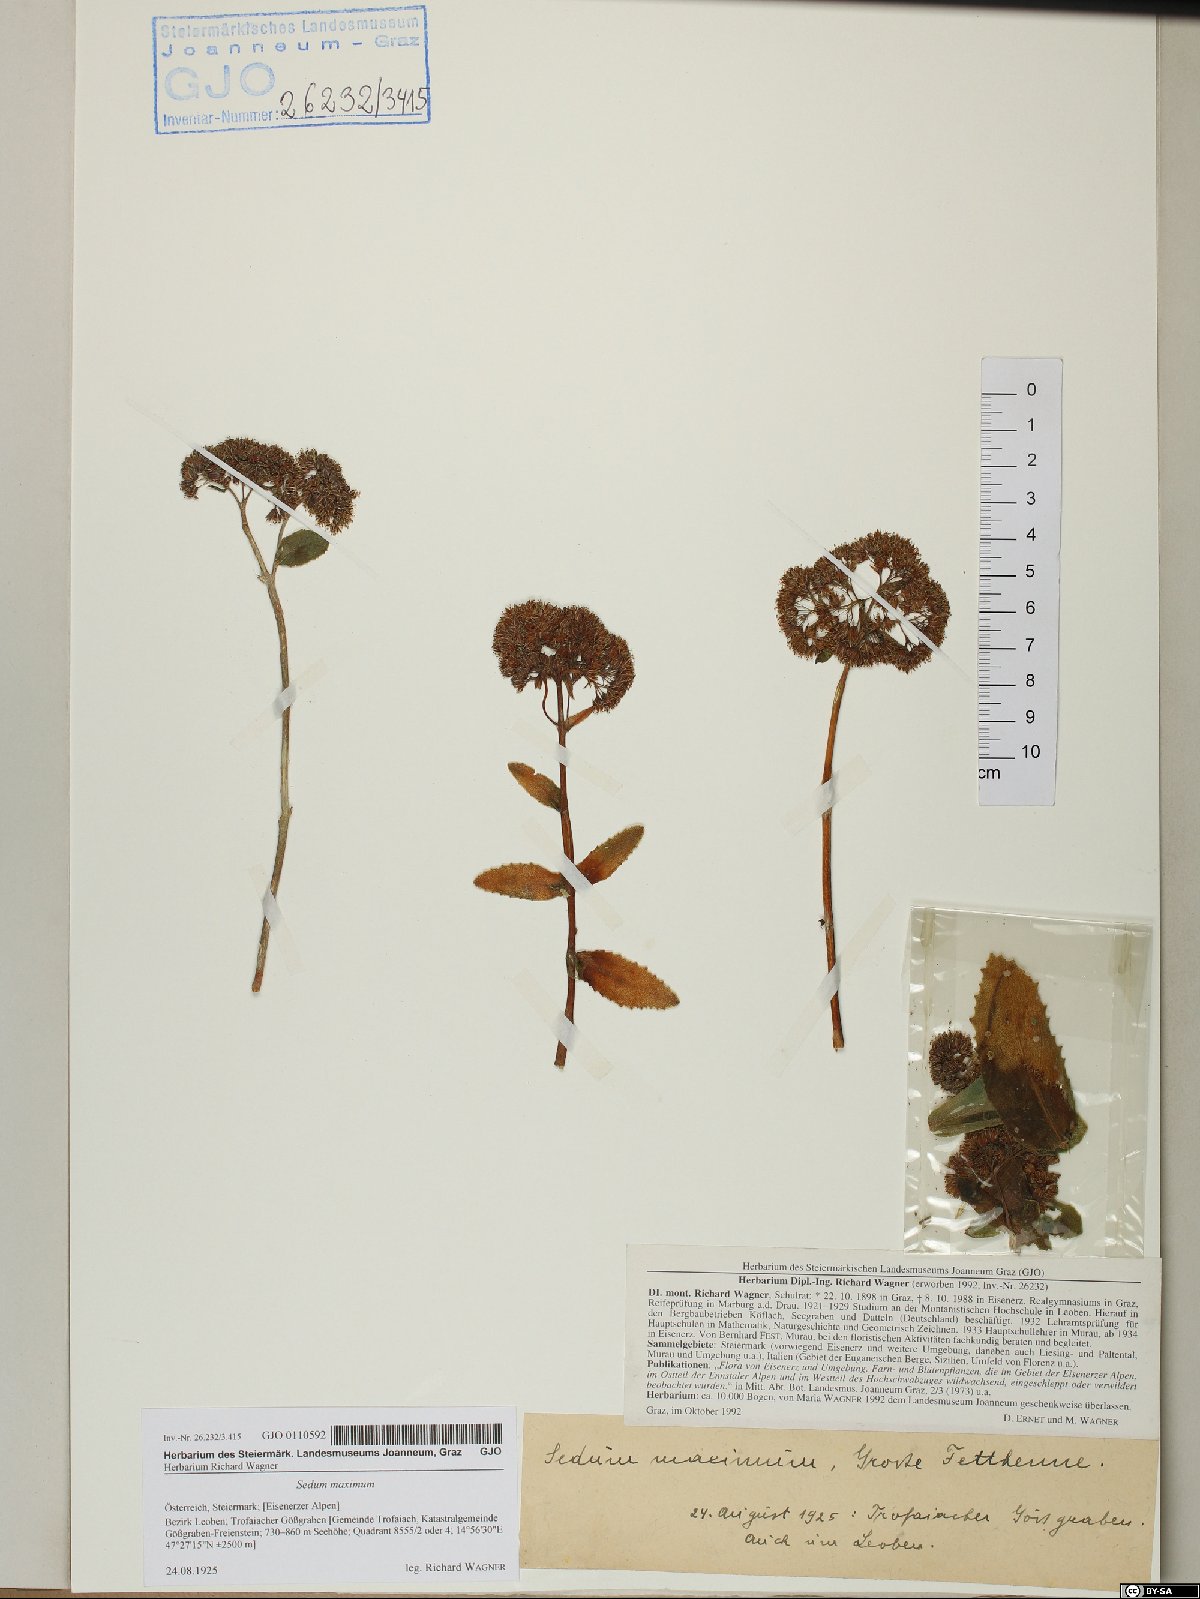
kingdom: Plantae
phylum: Tracheophyta
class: Magnoliopsida
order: Saxifragales
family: Crassulaceae
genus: Hylotelephium
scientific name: Hylotelephium maximum
